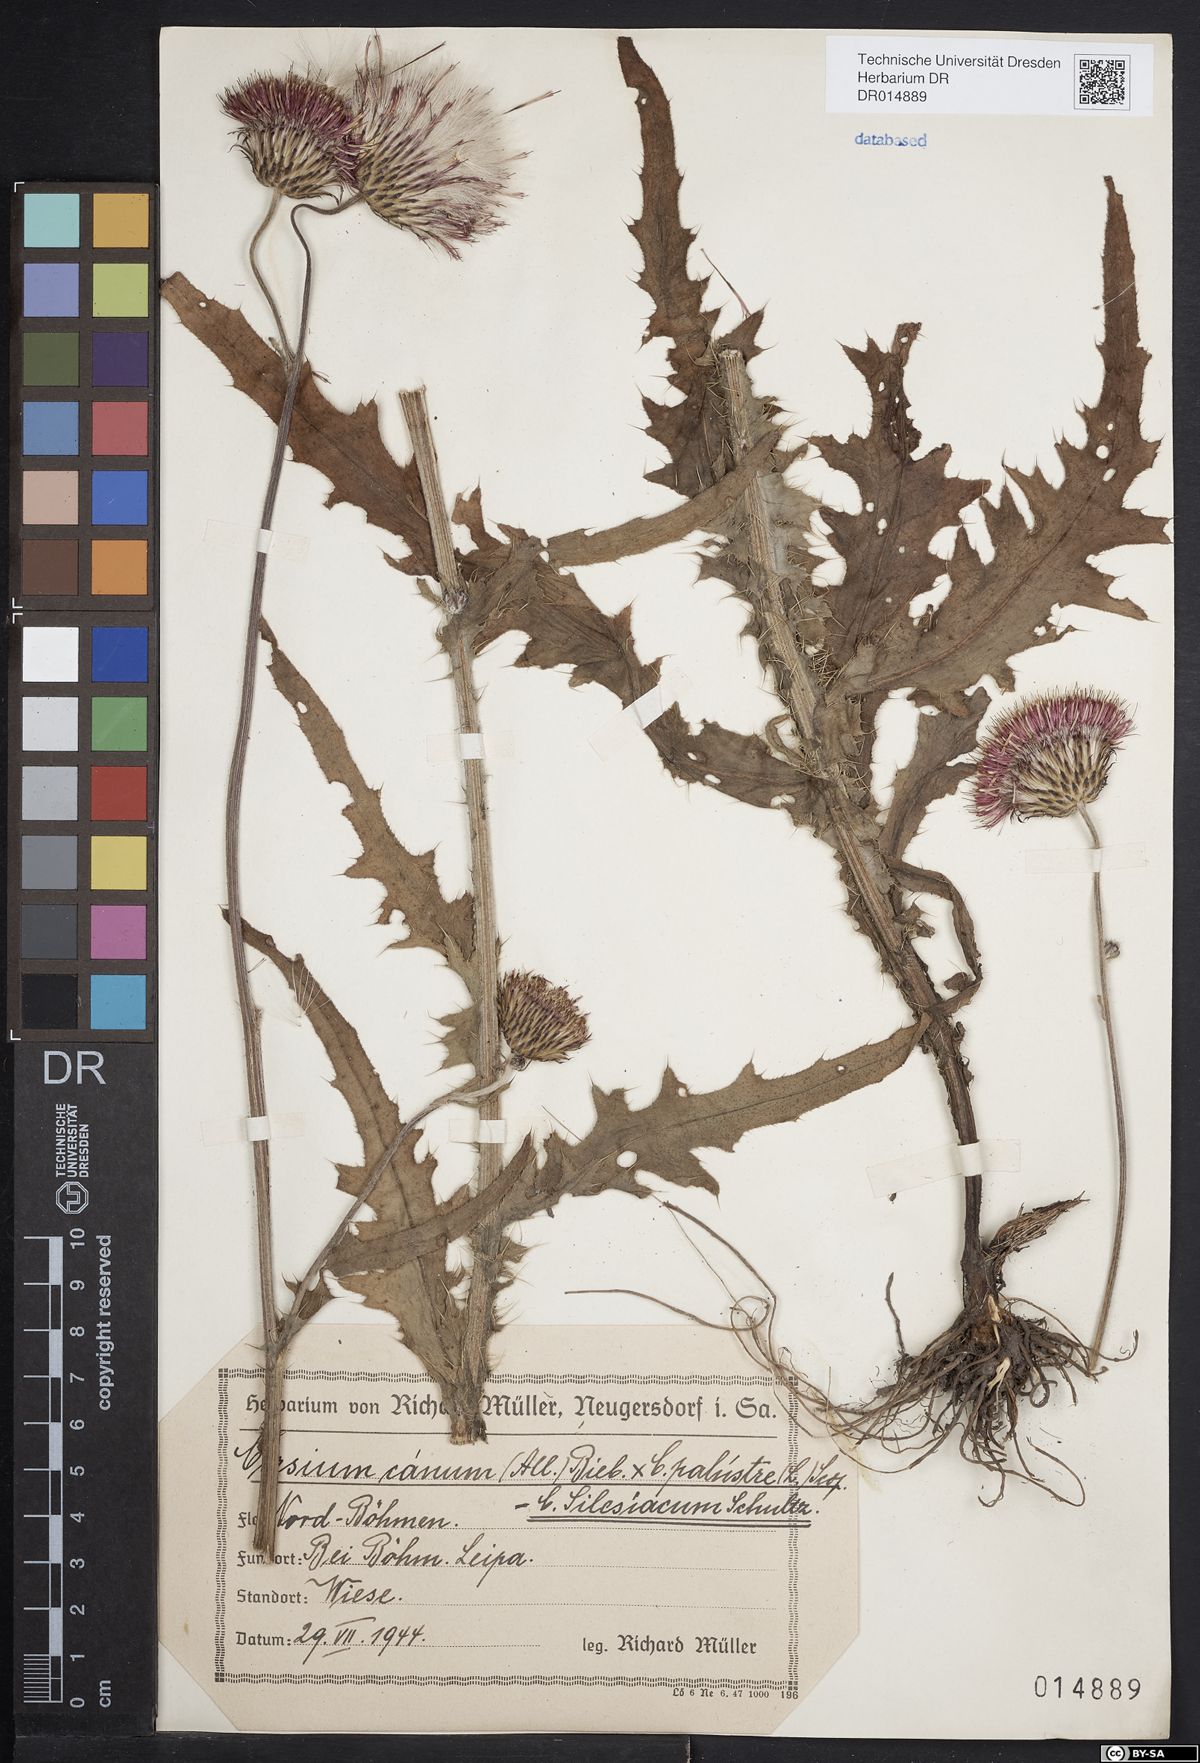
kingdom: Plantae
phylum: Tracheophyta
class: Magnoliopsida
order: Asterales
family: Asteraceae
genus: Cirsium
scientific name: Cirsium silesiacum
